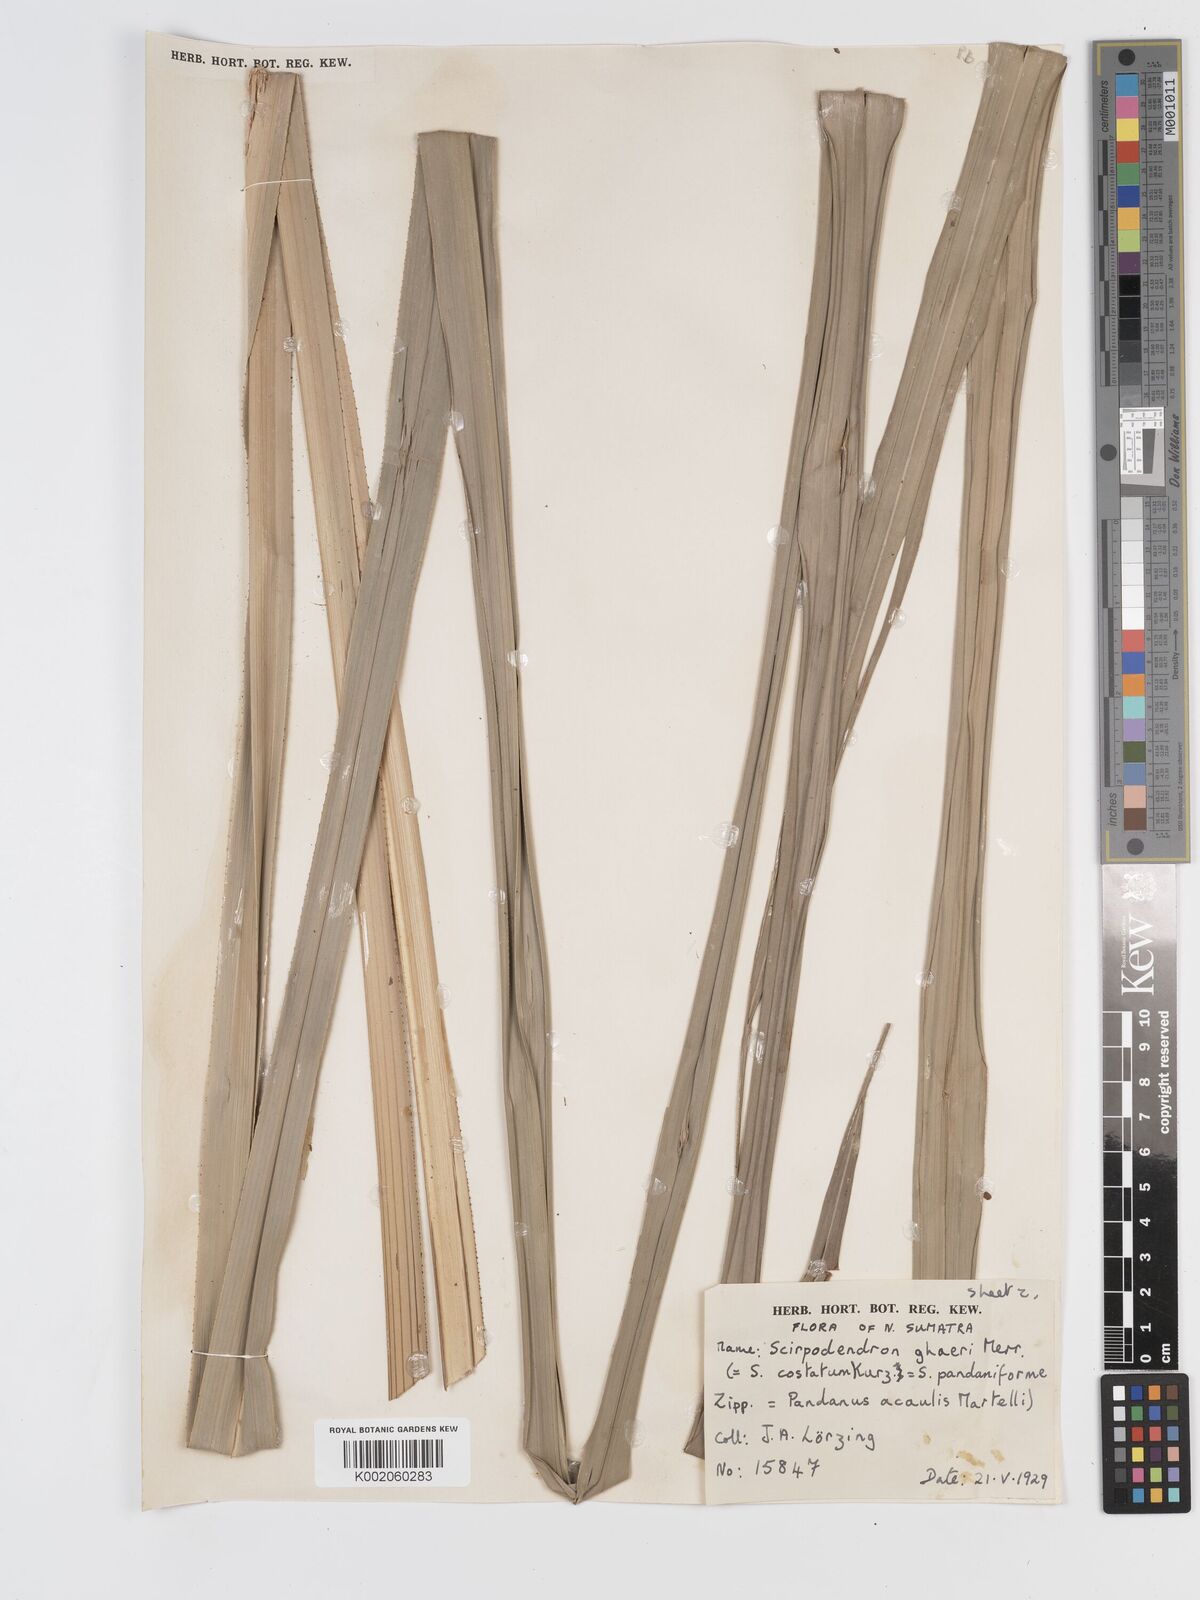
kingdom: Plantae
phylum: Tracheophyta
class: Liliopsida
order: Poales
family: Cyperaceae
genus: Scirpodendron
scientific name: Scirpodendron ghaeri
